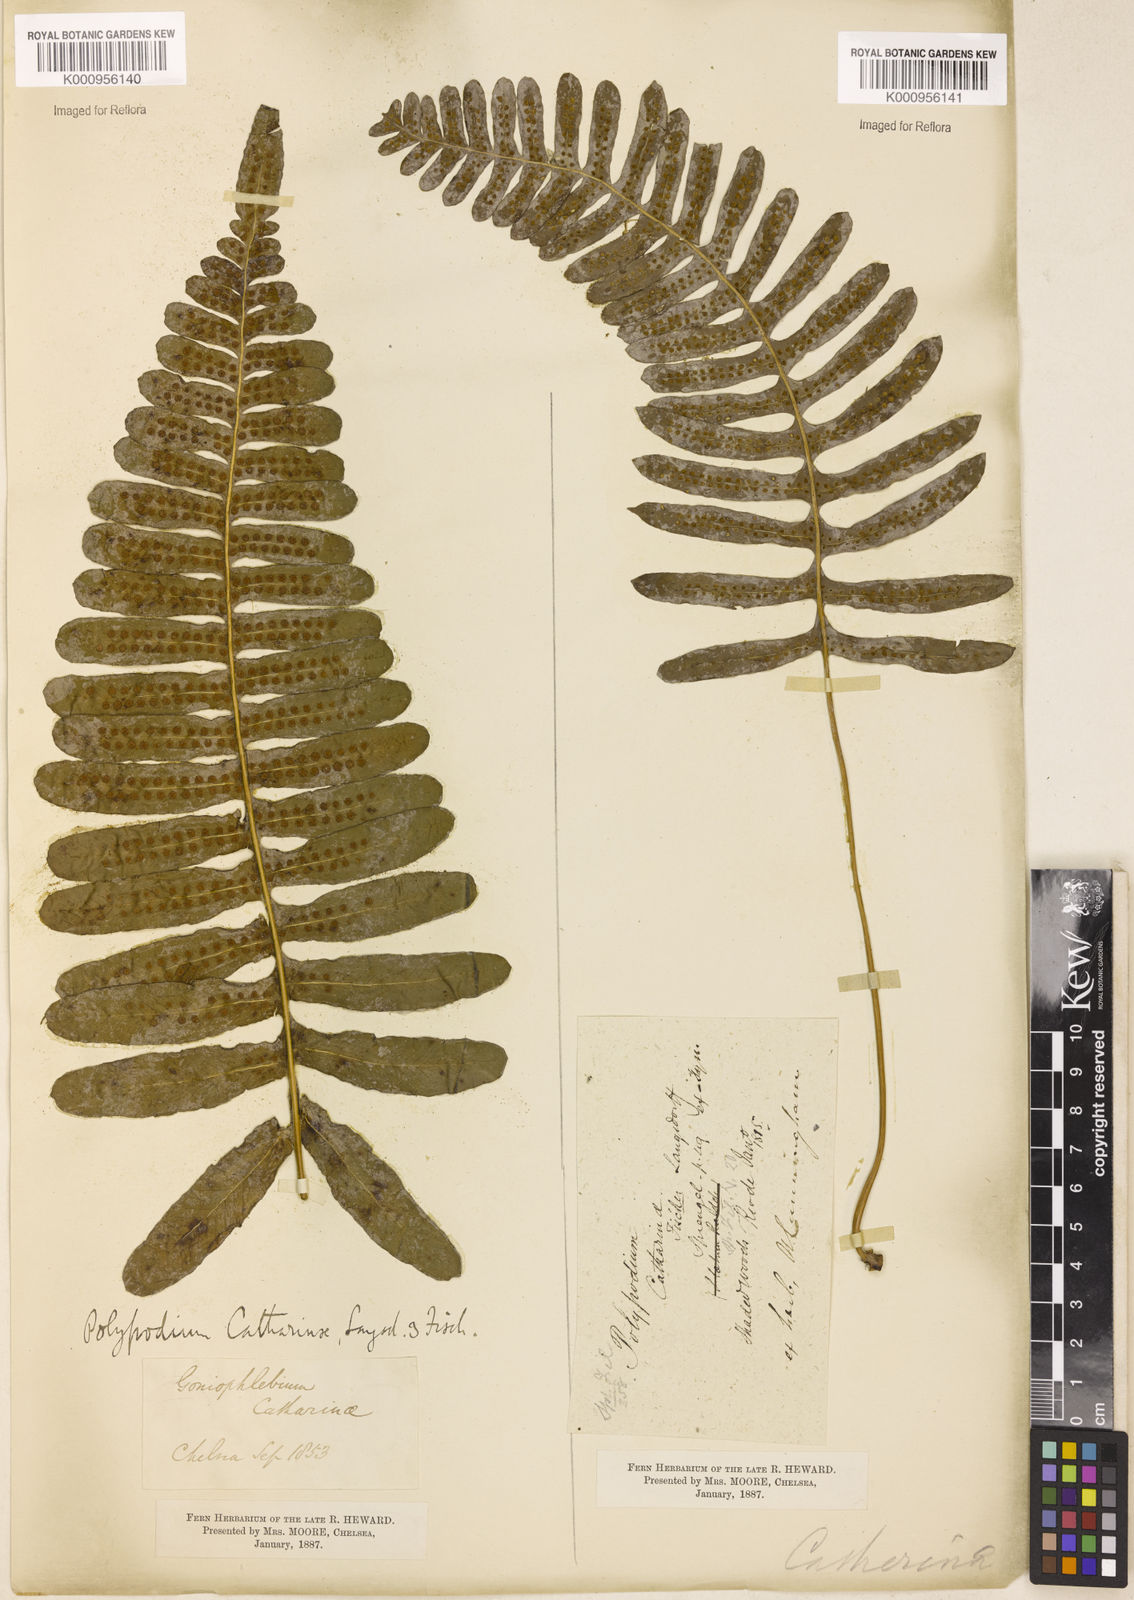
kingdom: Plantae
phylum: Tracheophyta
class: Polypodiopsida
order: Polypodiales
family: Polypodiaceae
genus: Serpocaulon
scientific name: Serpocaulon catharinae
